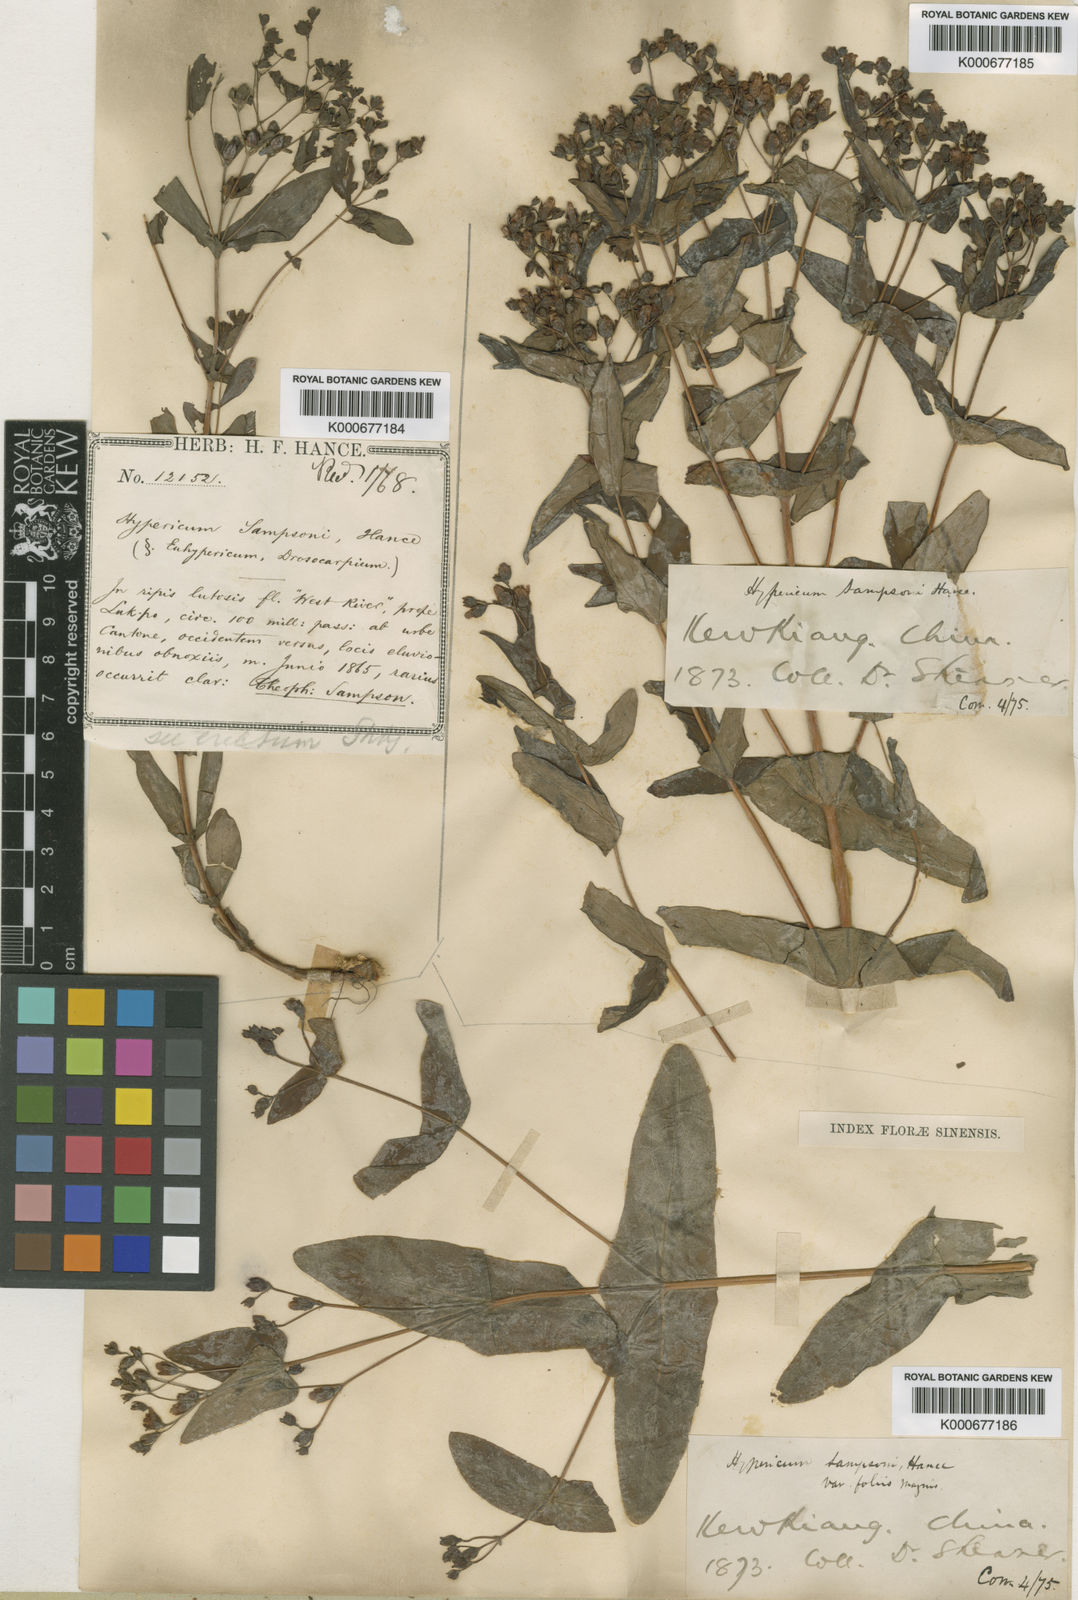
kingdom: Plantae
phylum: Tracheophyta
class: Magnoliopsida
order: Malpighiales
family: Hypericaceae
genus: Hypericum
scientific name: Hypericum sampsonii
